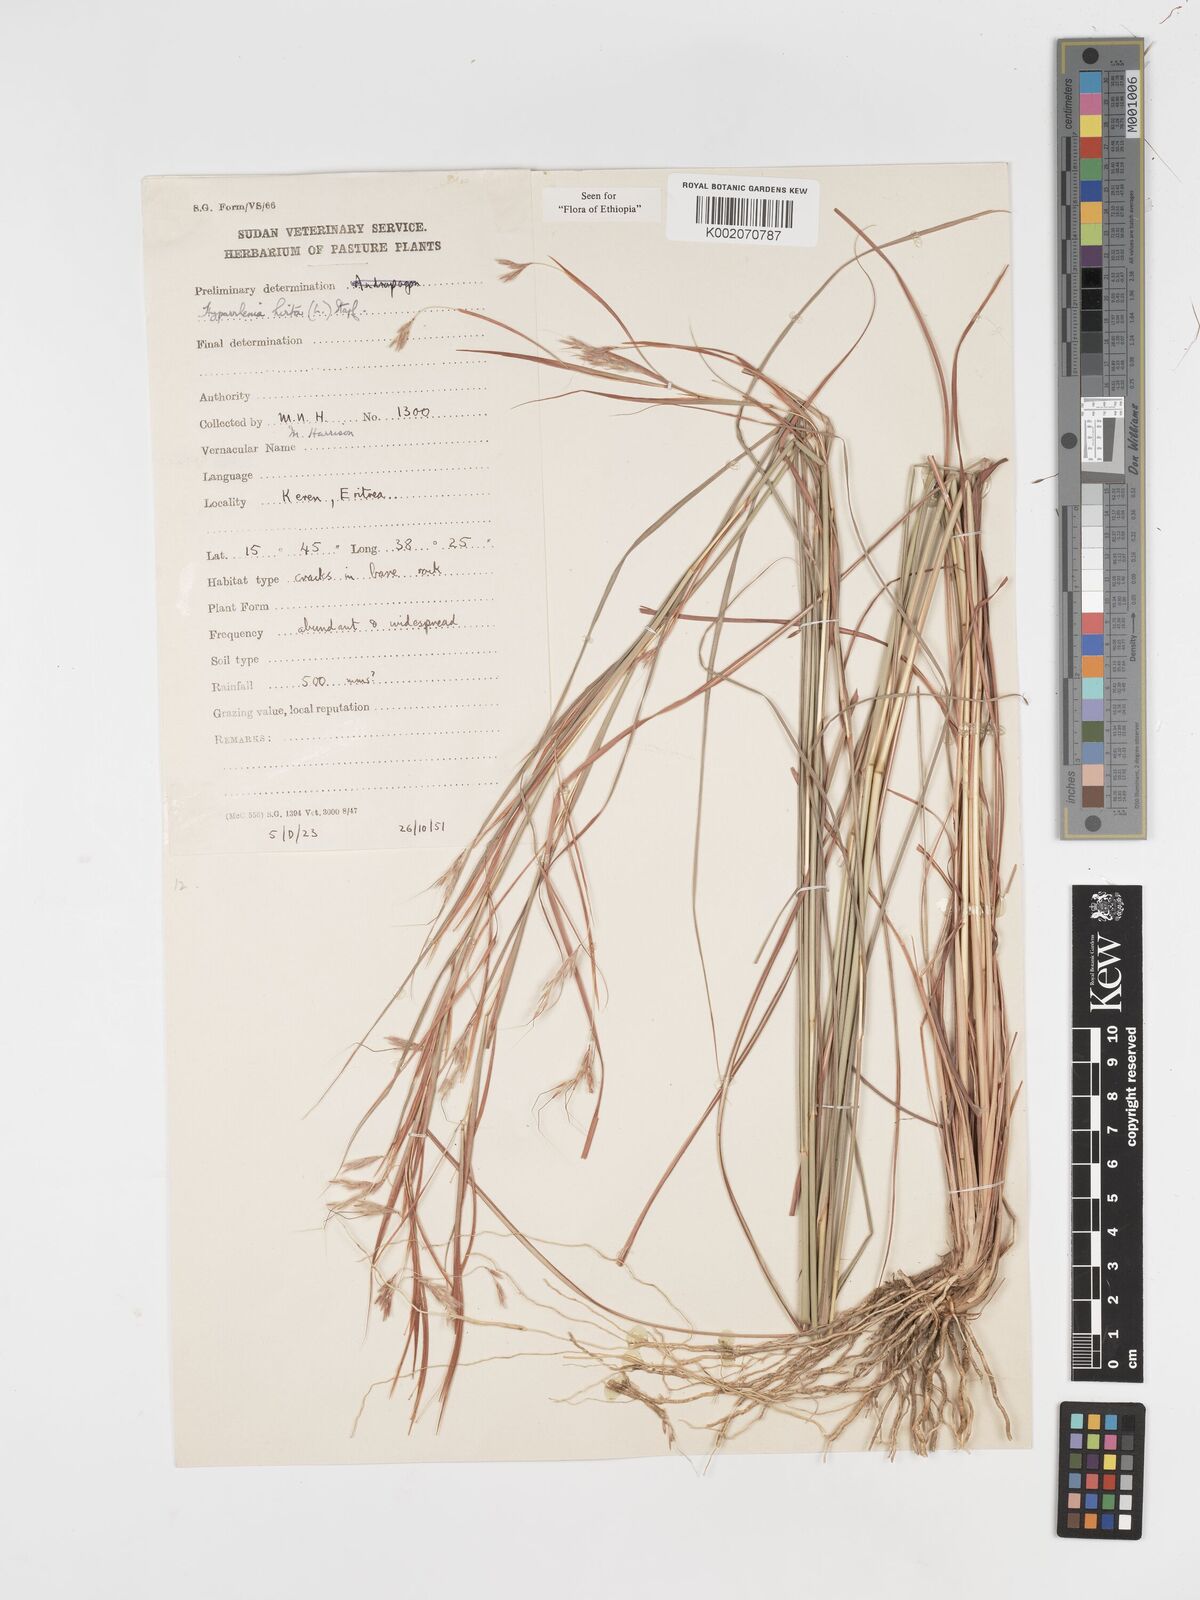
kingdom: Plantae
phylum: Tracheophyta
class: Liliopsida
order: Poales
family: Poaceae
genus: Hyparrhenia
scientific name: Hyparrhenia hirta
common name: Thatching grass
